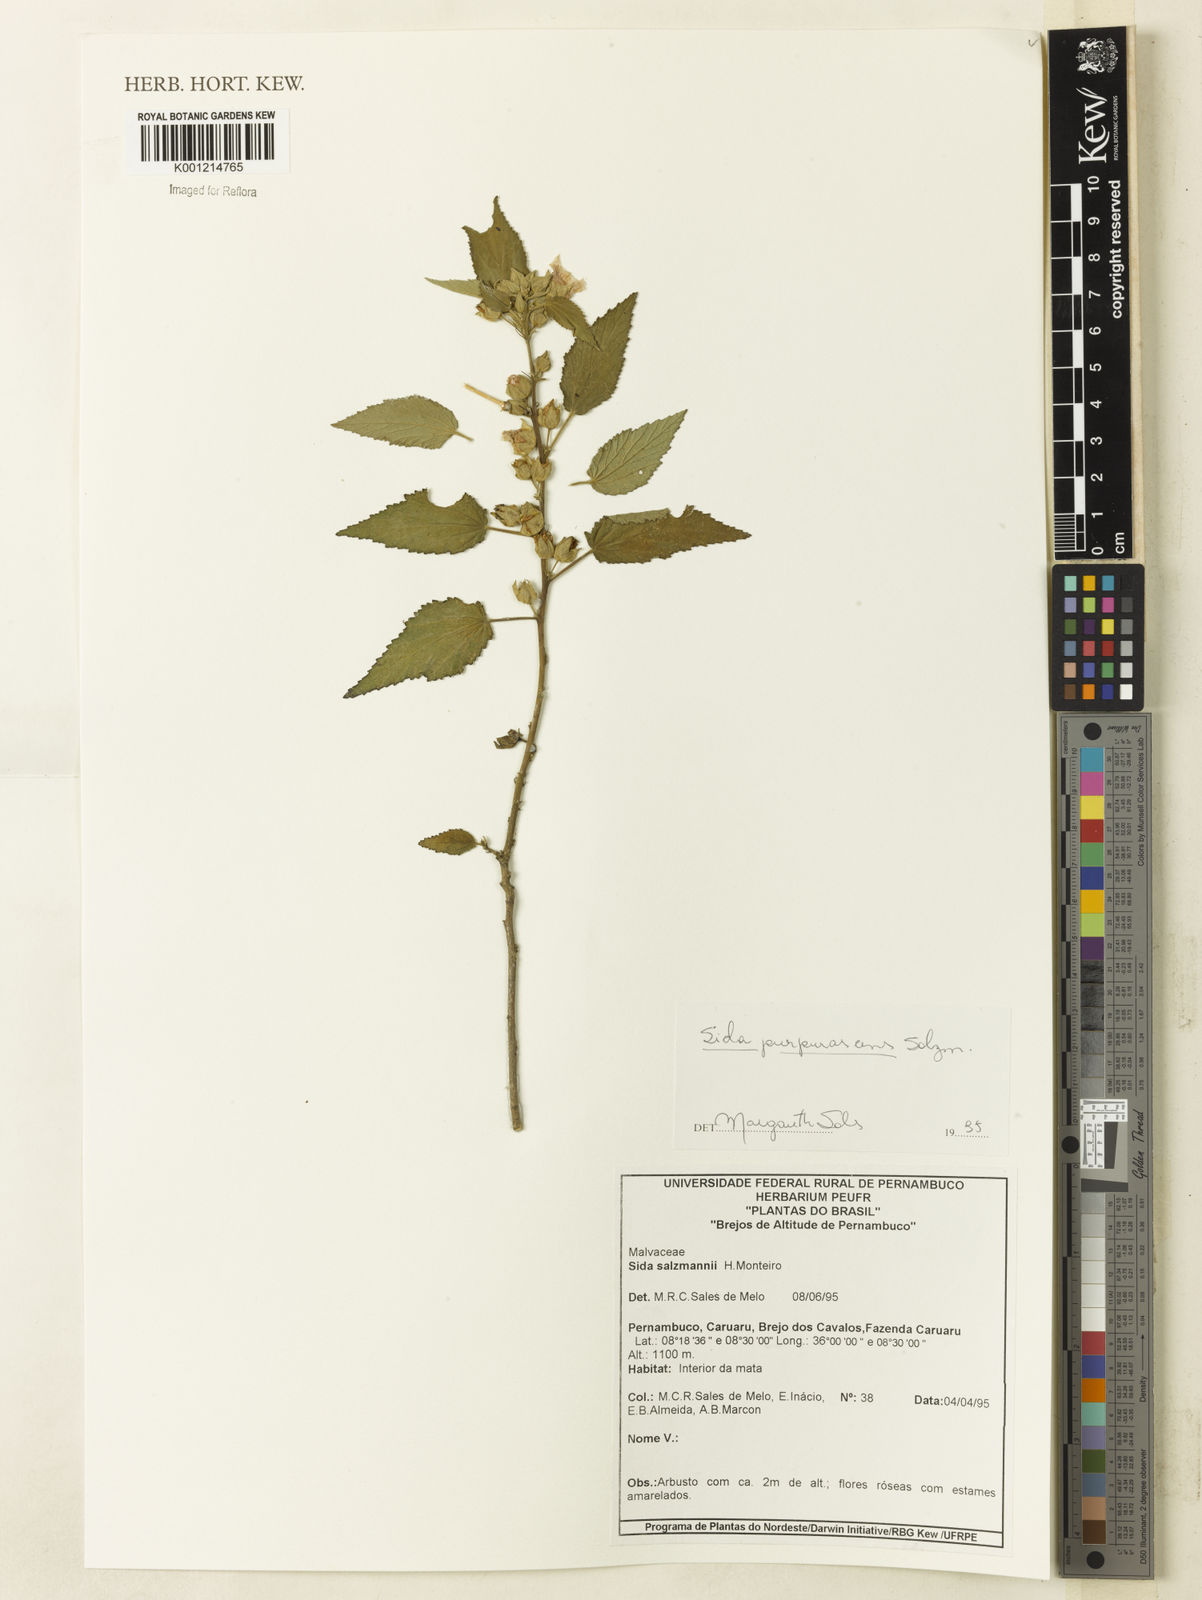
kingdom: Plantae
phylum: Tracheophyta
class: Magnoliopsida
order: Malvales
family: Malvaceae
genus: Sida
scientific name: Sida ulei
